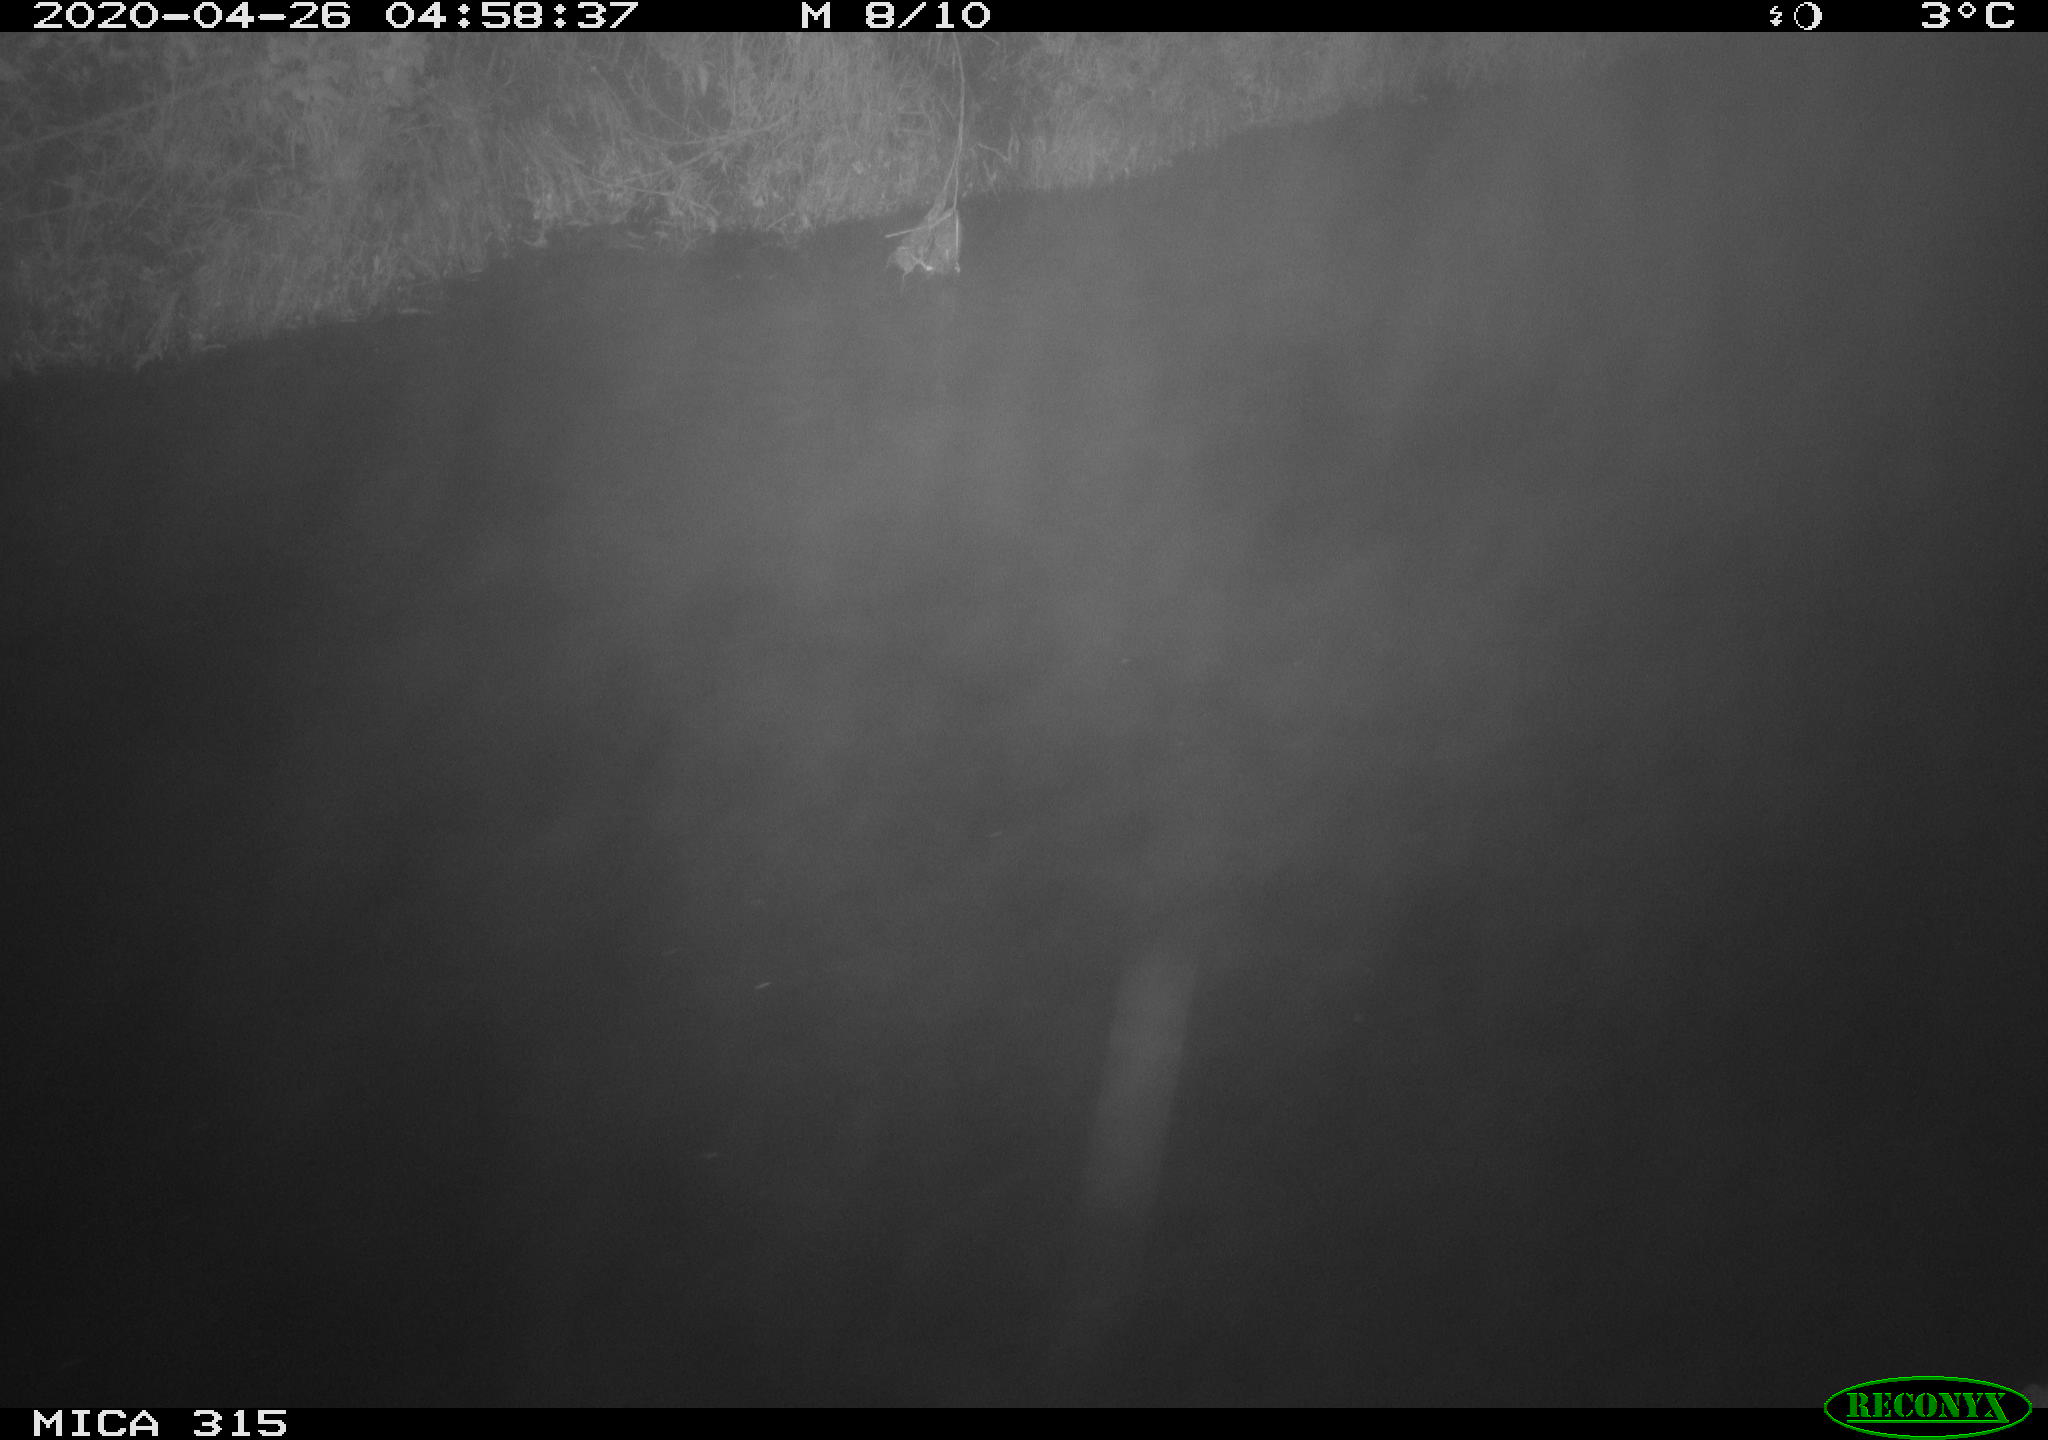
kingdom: Animalia
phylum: Chordata
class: Aves
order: Anseriformes
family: Anatidae
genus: Anas
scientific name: Anas platyrhynchos
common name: Mallard
